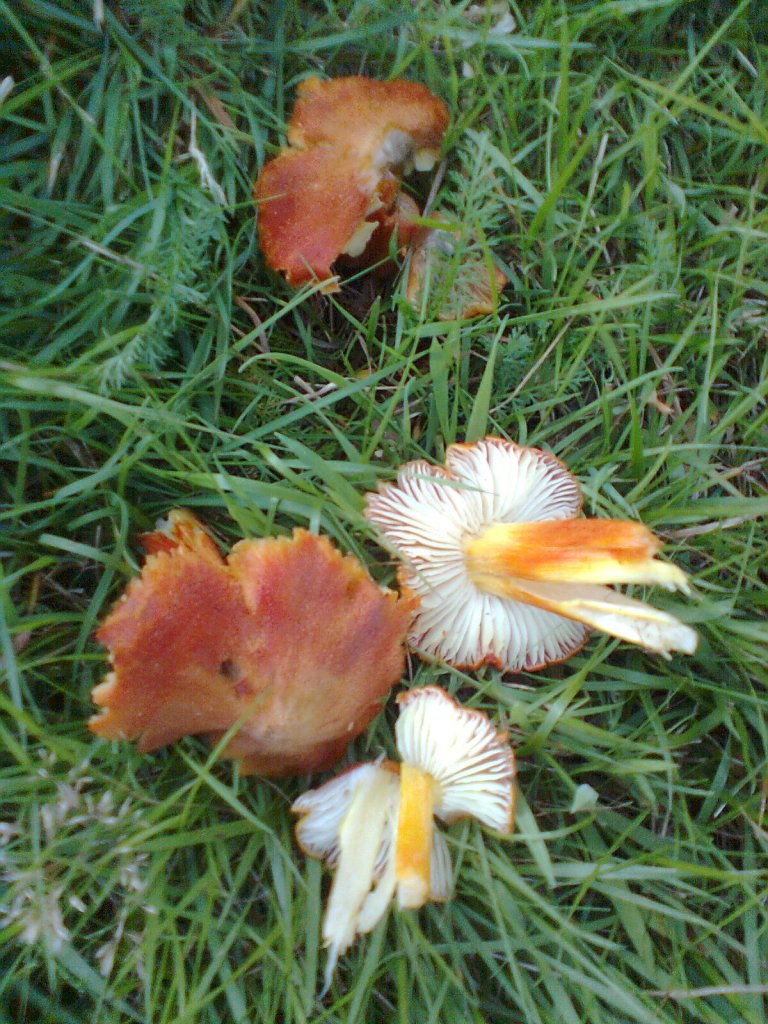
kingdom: Fungi
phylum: Basidiomycota
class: Agaricomycetes
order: Agaricales
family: Hygrophoraceae
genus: Hygrocybe
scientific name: Hygrocybe intermedia
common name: trævlet vokshat
